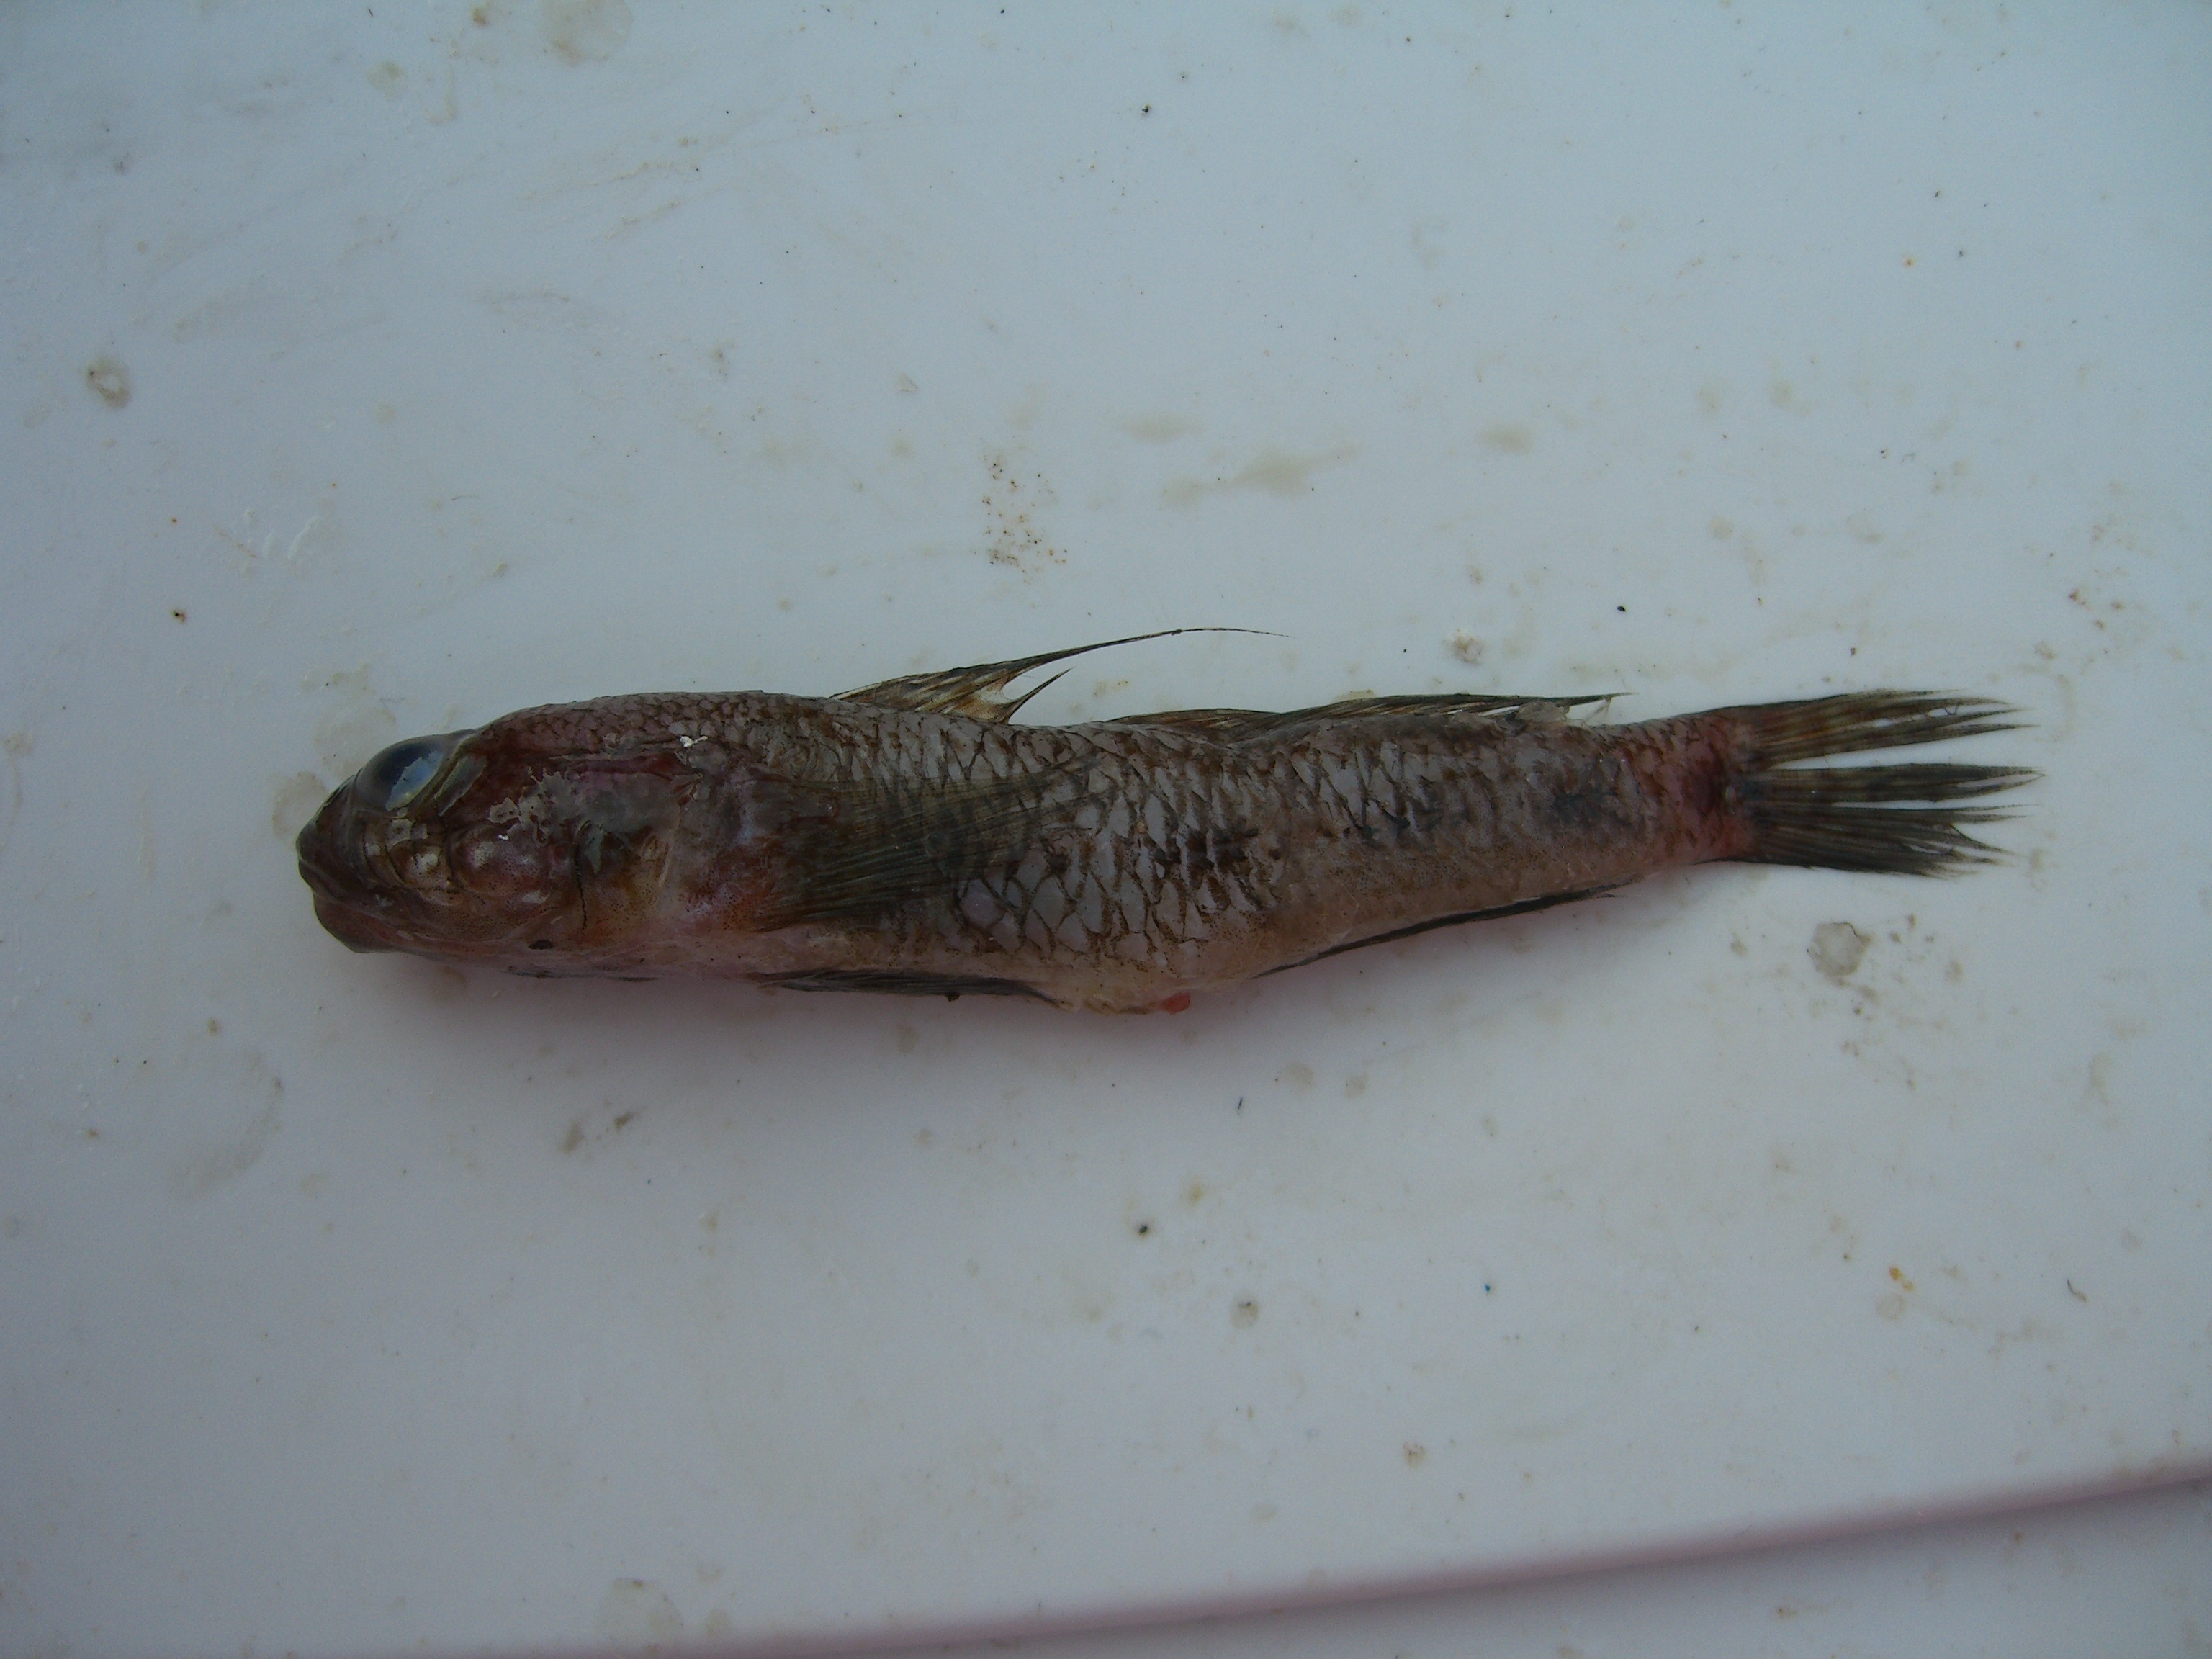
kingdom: Animalia
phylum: Chordata
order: Perciformes
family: Gobiidae
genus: Gobius
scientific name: Gobius niger
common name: Black goby
